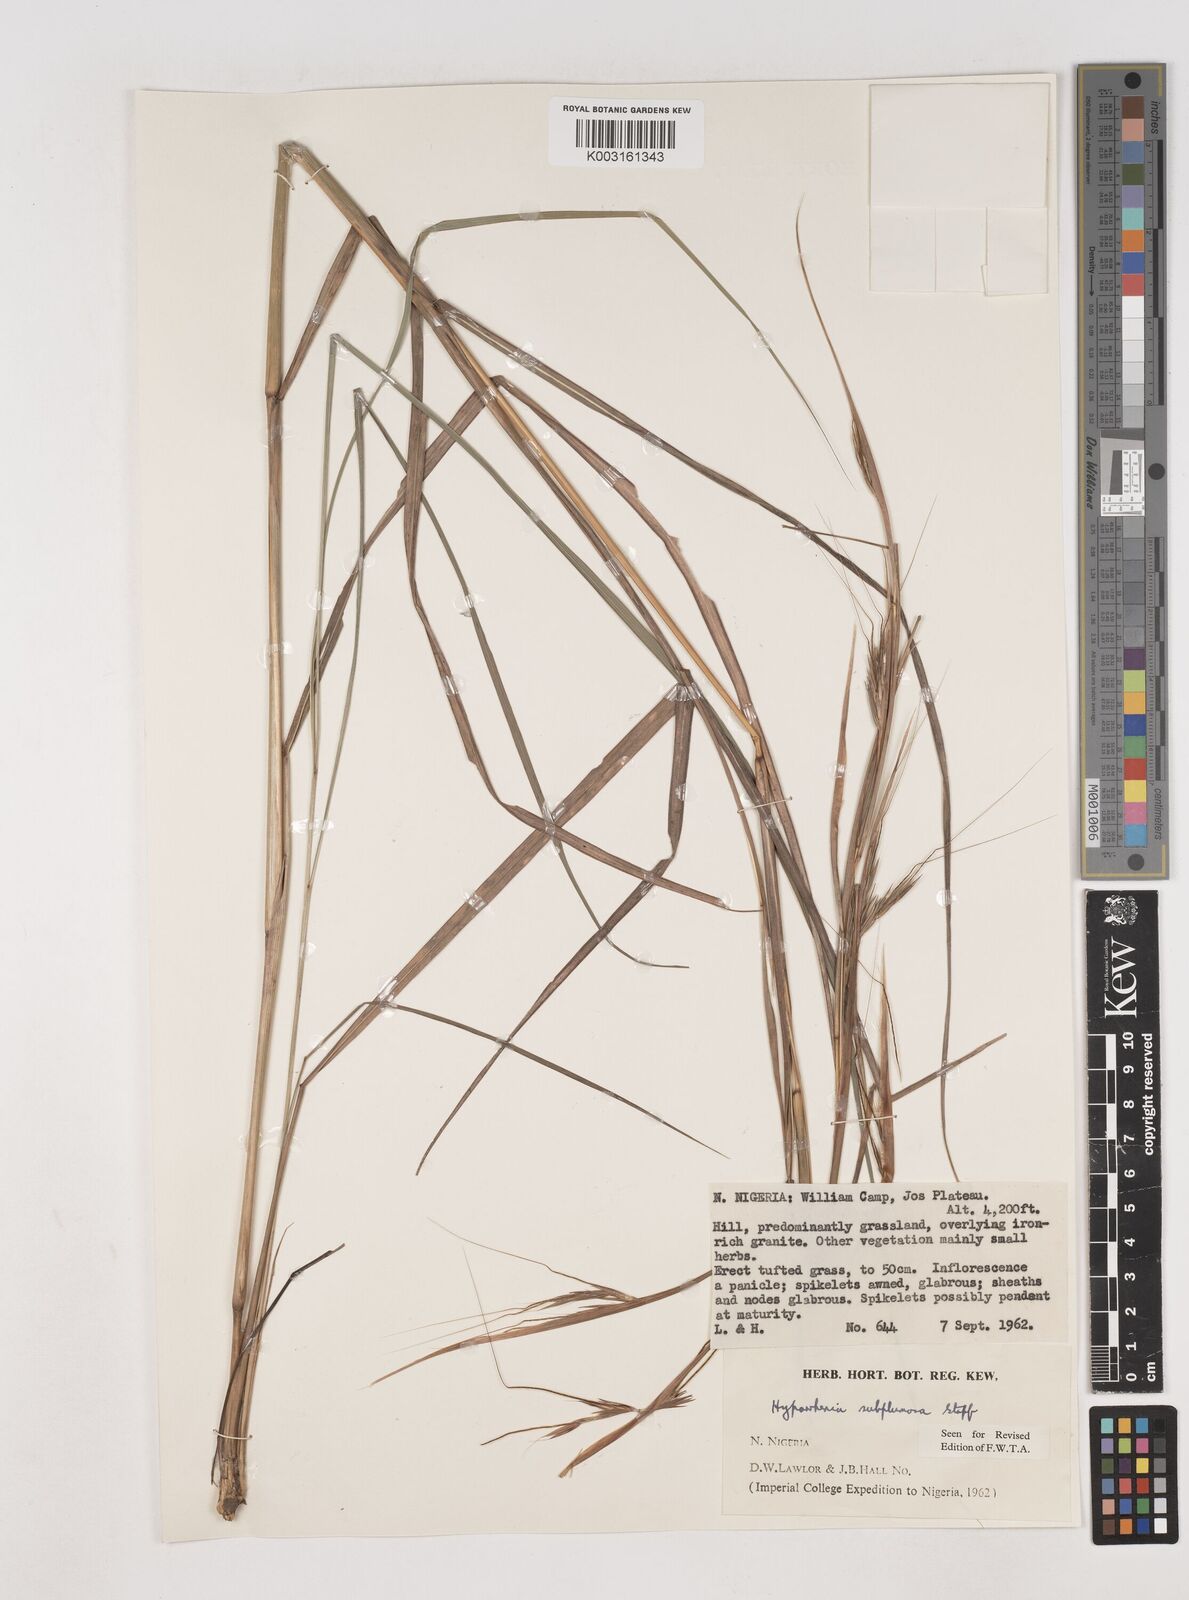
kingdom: Plantae
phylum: Tracheophyta
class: Liliopsida
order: Poales
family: Poaceae
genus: Hyparrhenia
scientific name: Hyparrhenia subplumosa
